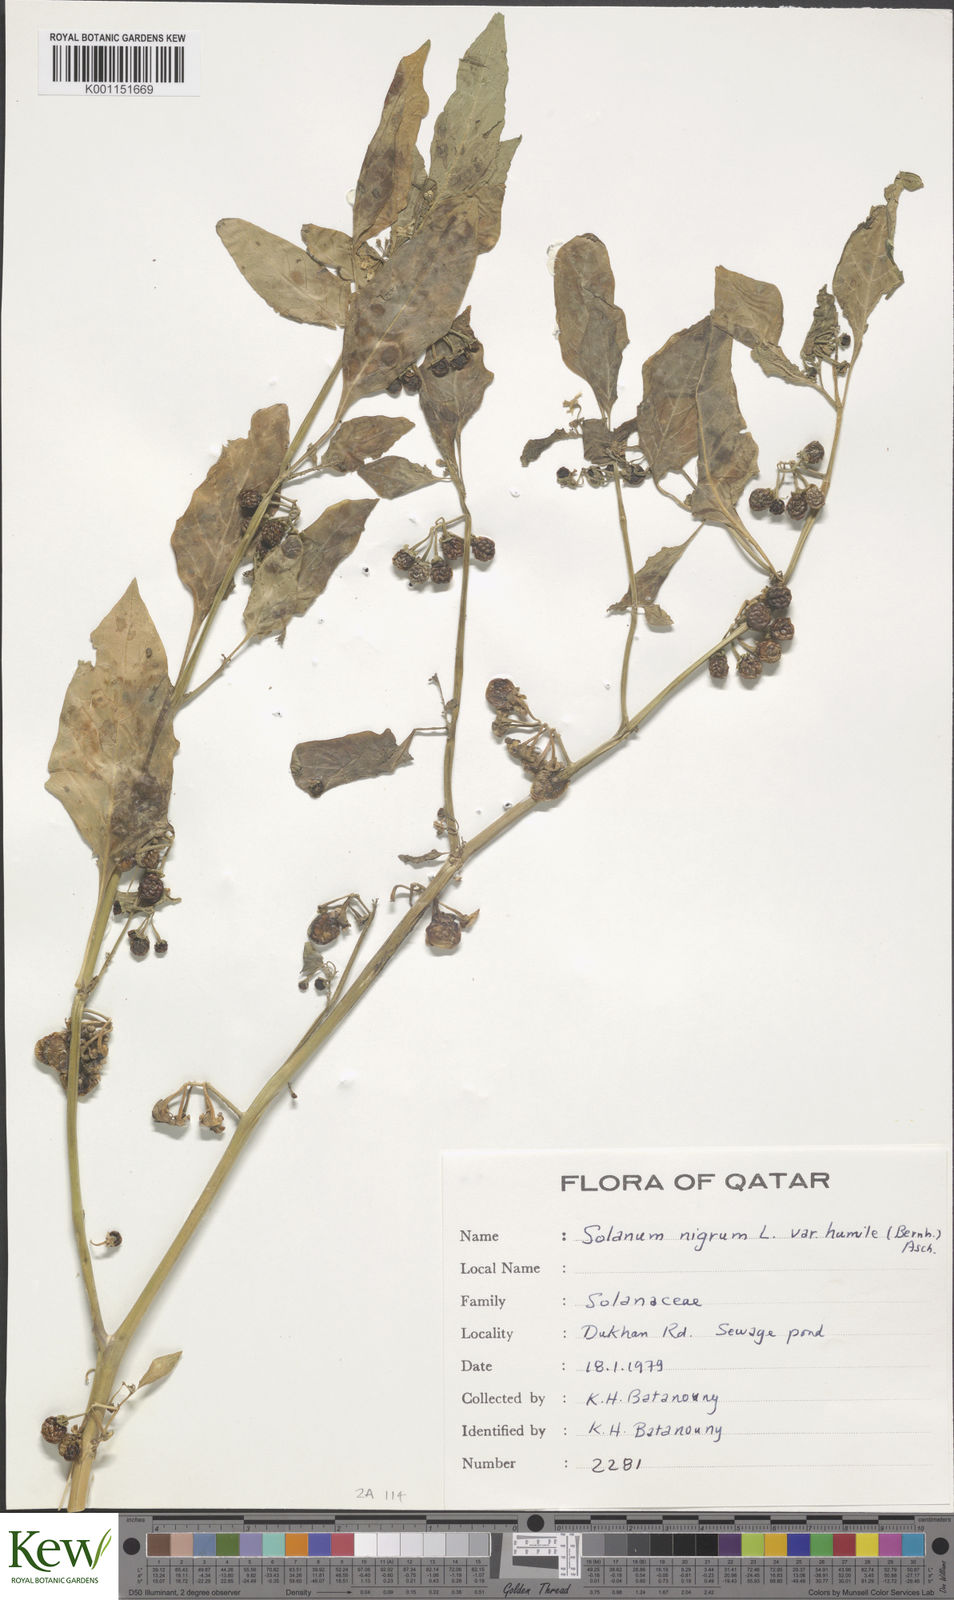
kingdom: Plantae
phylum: Tracheophyta
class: Magnoliopsida
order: Solanales
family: Solanaceae
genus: Solanum
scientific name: Solanum nigrum
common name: Black nightshade
